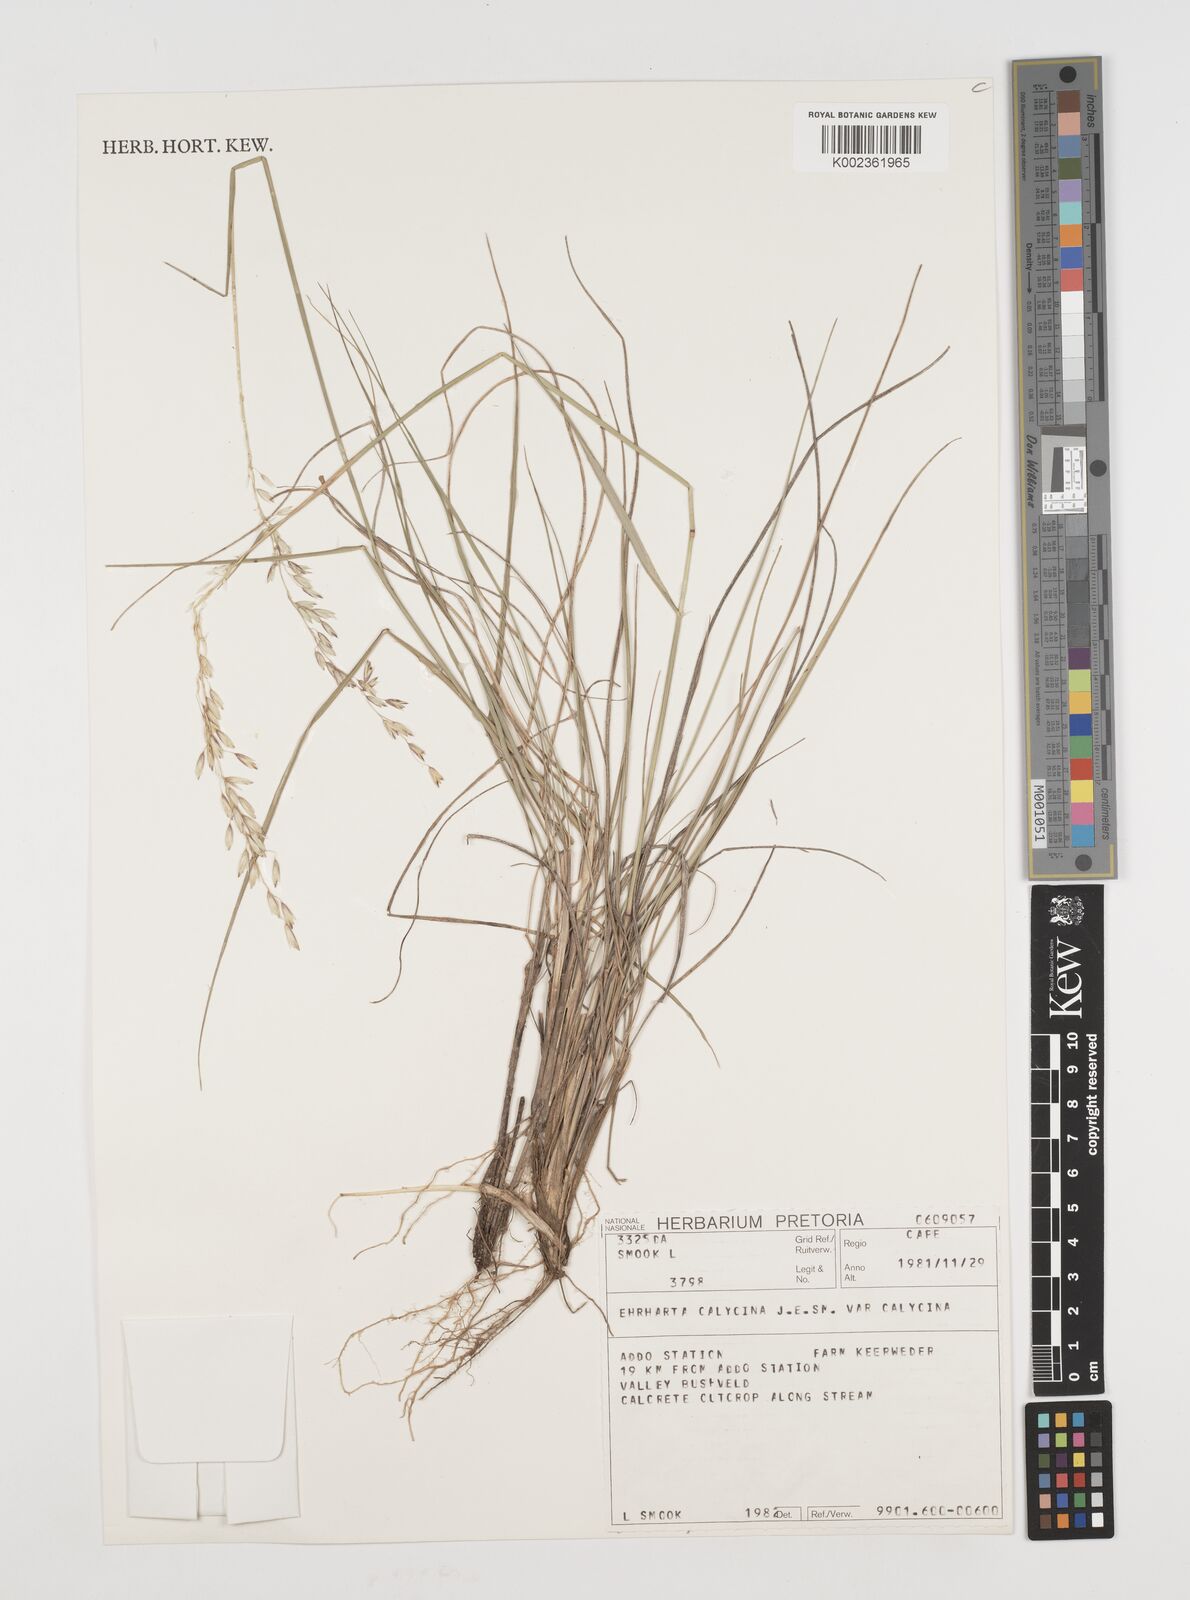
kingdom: Plantae
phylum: Tracheophyta
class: Liliopsida
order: Poales
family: Poaceae
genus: Ehrharta
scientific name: Ehrharta calycina
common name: Perennial veldtgrass
